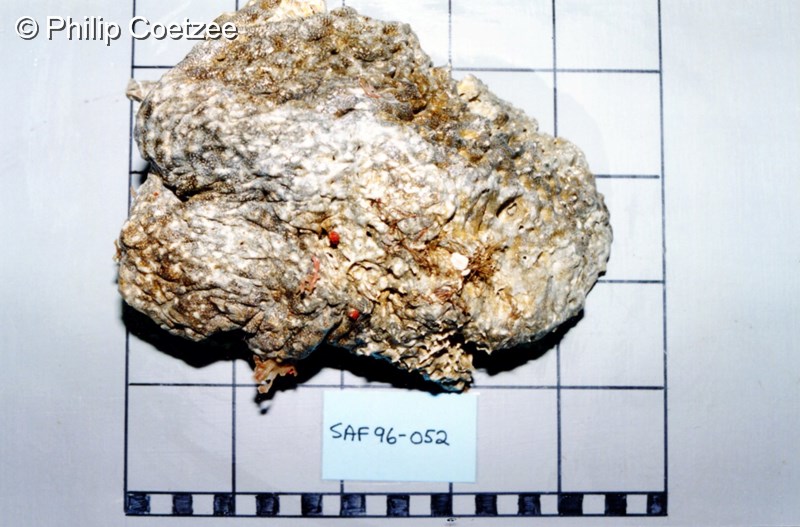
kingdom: Animalia
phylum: Chordata
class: Ascidiacea
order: Aplousobranchia
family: Didemnidae
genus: Trididemnum
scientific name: Trididemnum cerebriforme
